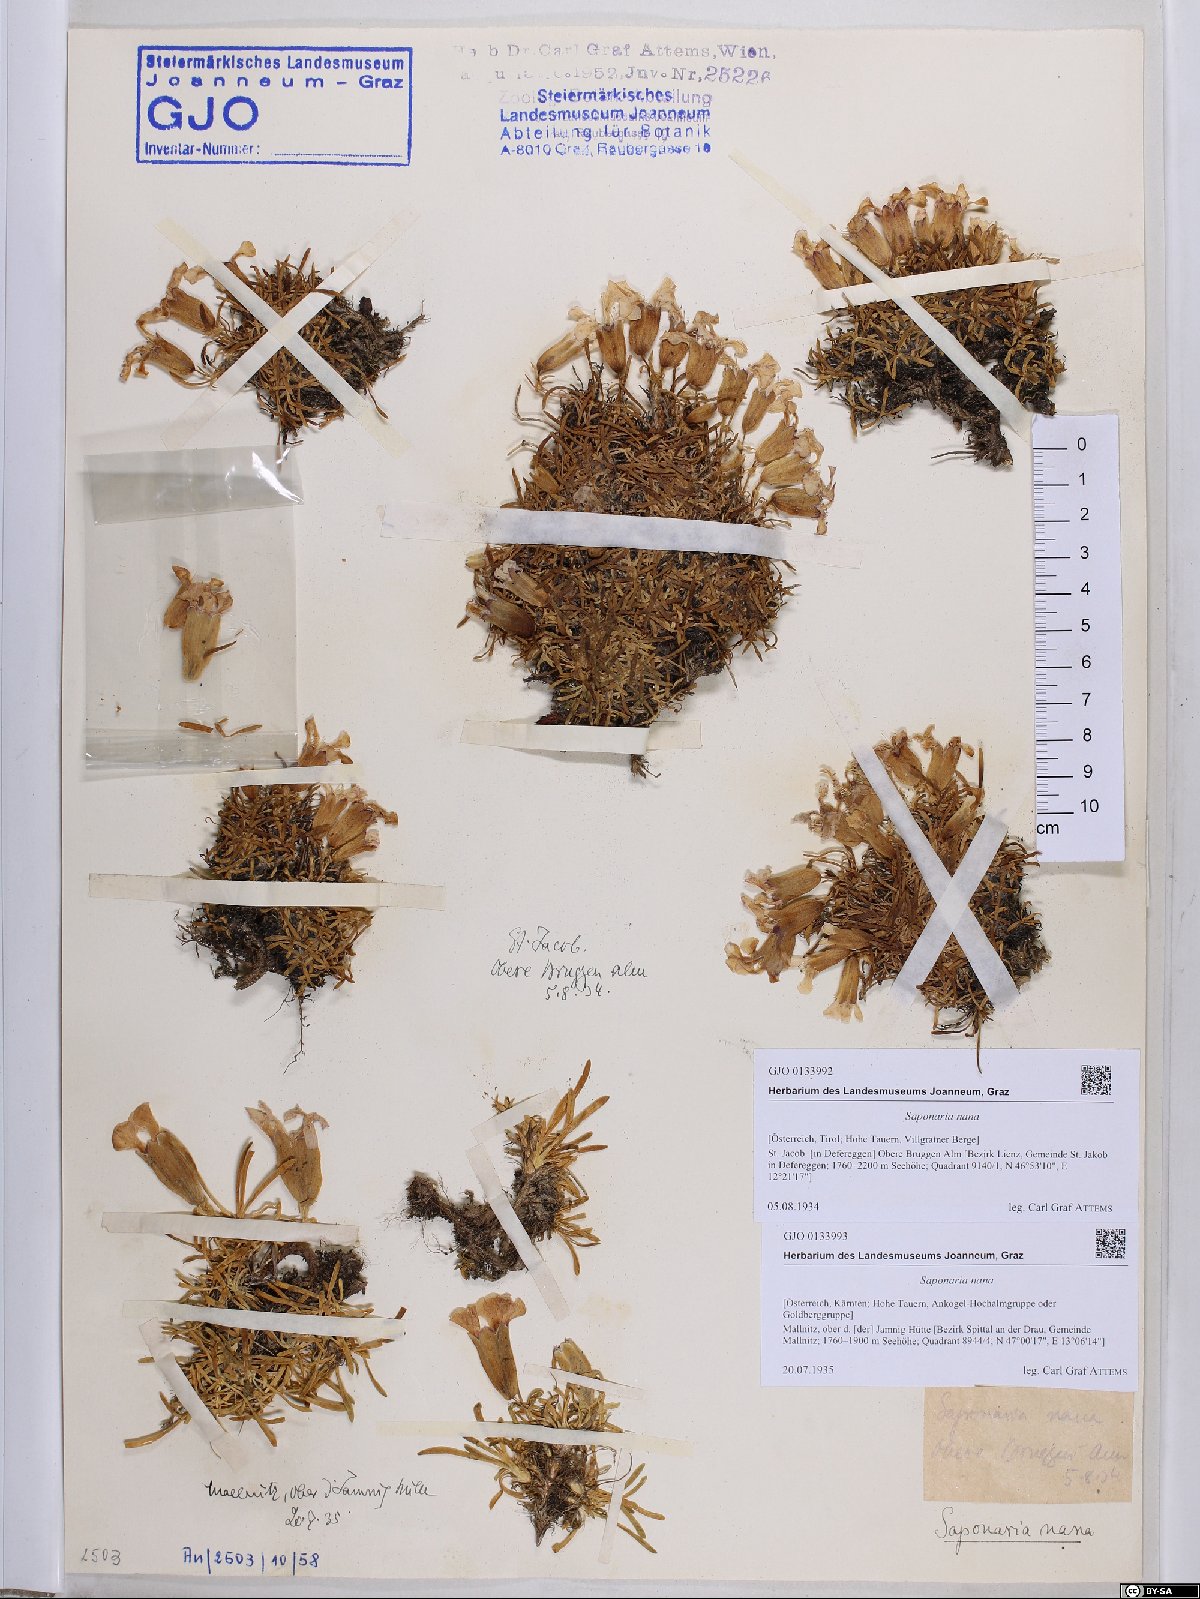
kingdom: Plantae
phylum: Tracheophyta
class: Magnoliopsida
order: Caryophyllales
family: Caryophyllaceae
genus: Saponaria
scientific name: Saponaria pumila
